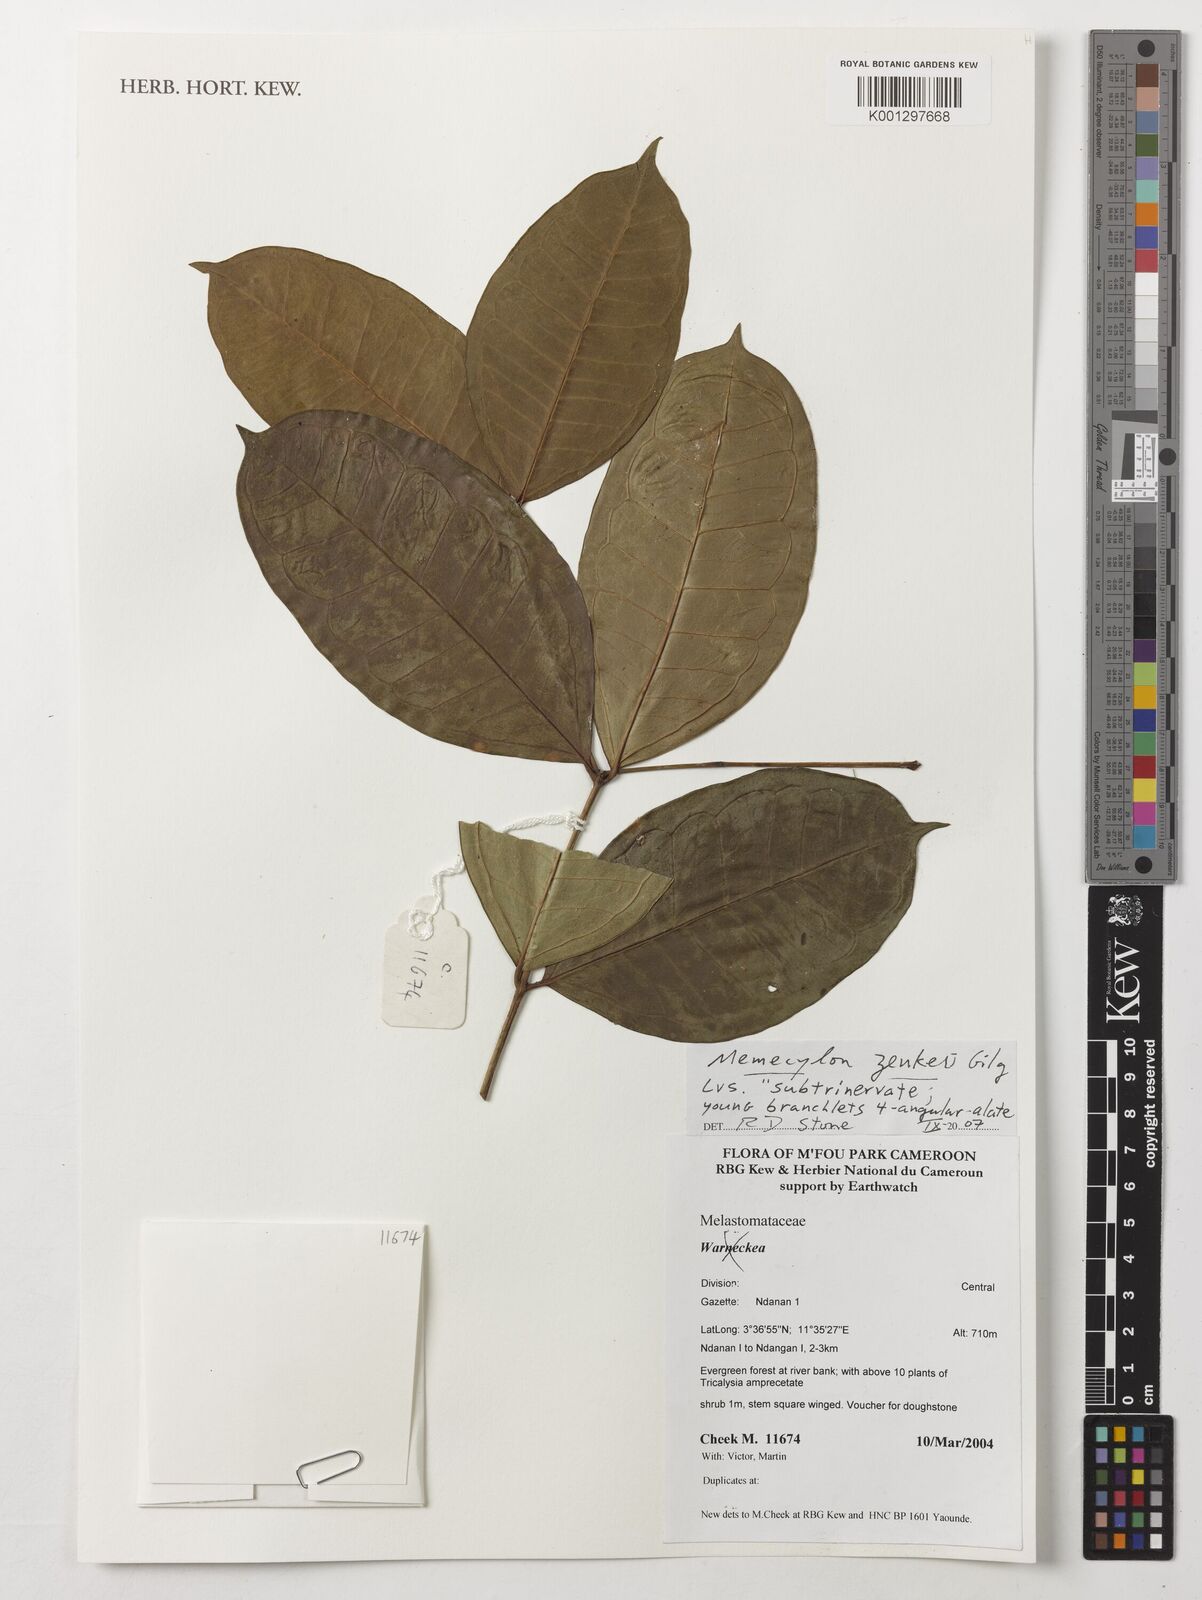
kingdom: Plantae
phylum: Tracheophyta
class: Magnoliopsida
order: Myrtales
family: Melastomataceae
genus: Memecylon
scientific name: Memecylon zenkeri
